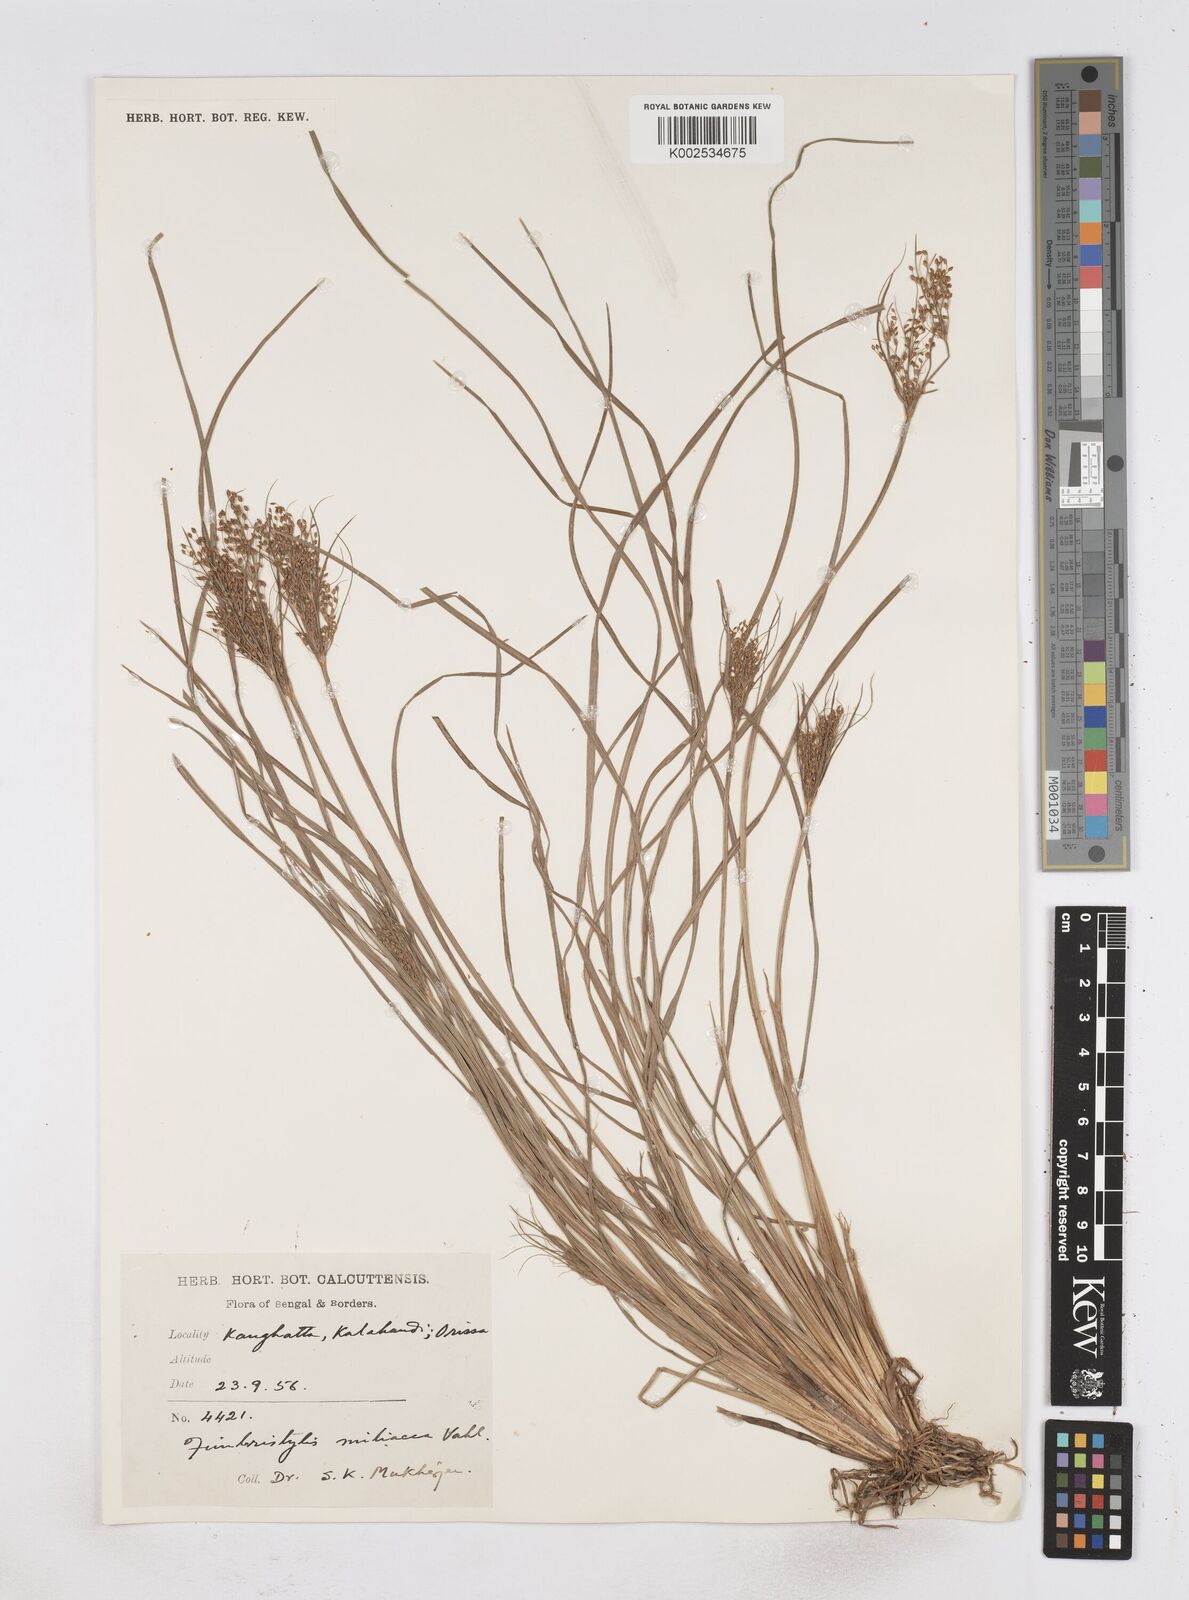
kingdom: Plantae
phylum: Tracheophyta
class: Liliopsida
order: Poales
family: Cyperaceae
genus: Fimbristylis
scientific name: Fimbristylis littoralis
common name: Fimbry
